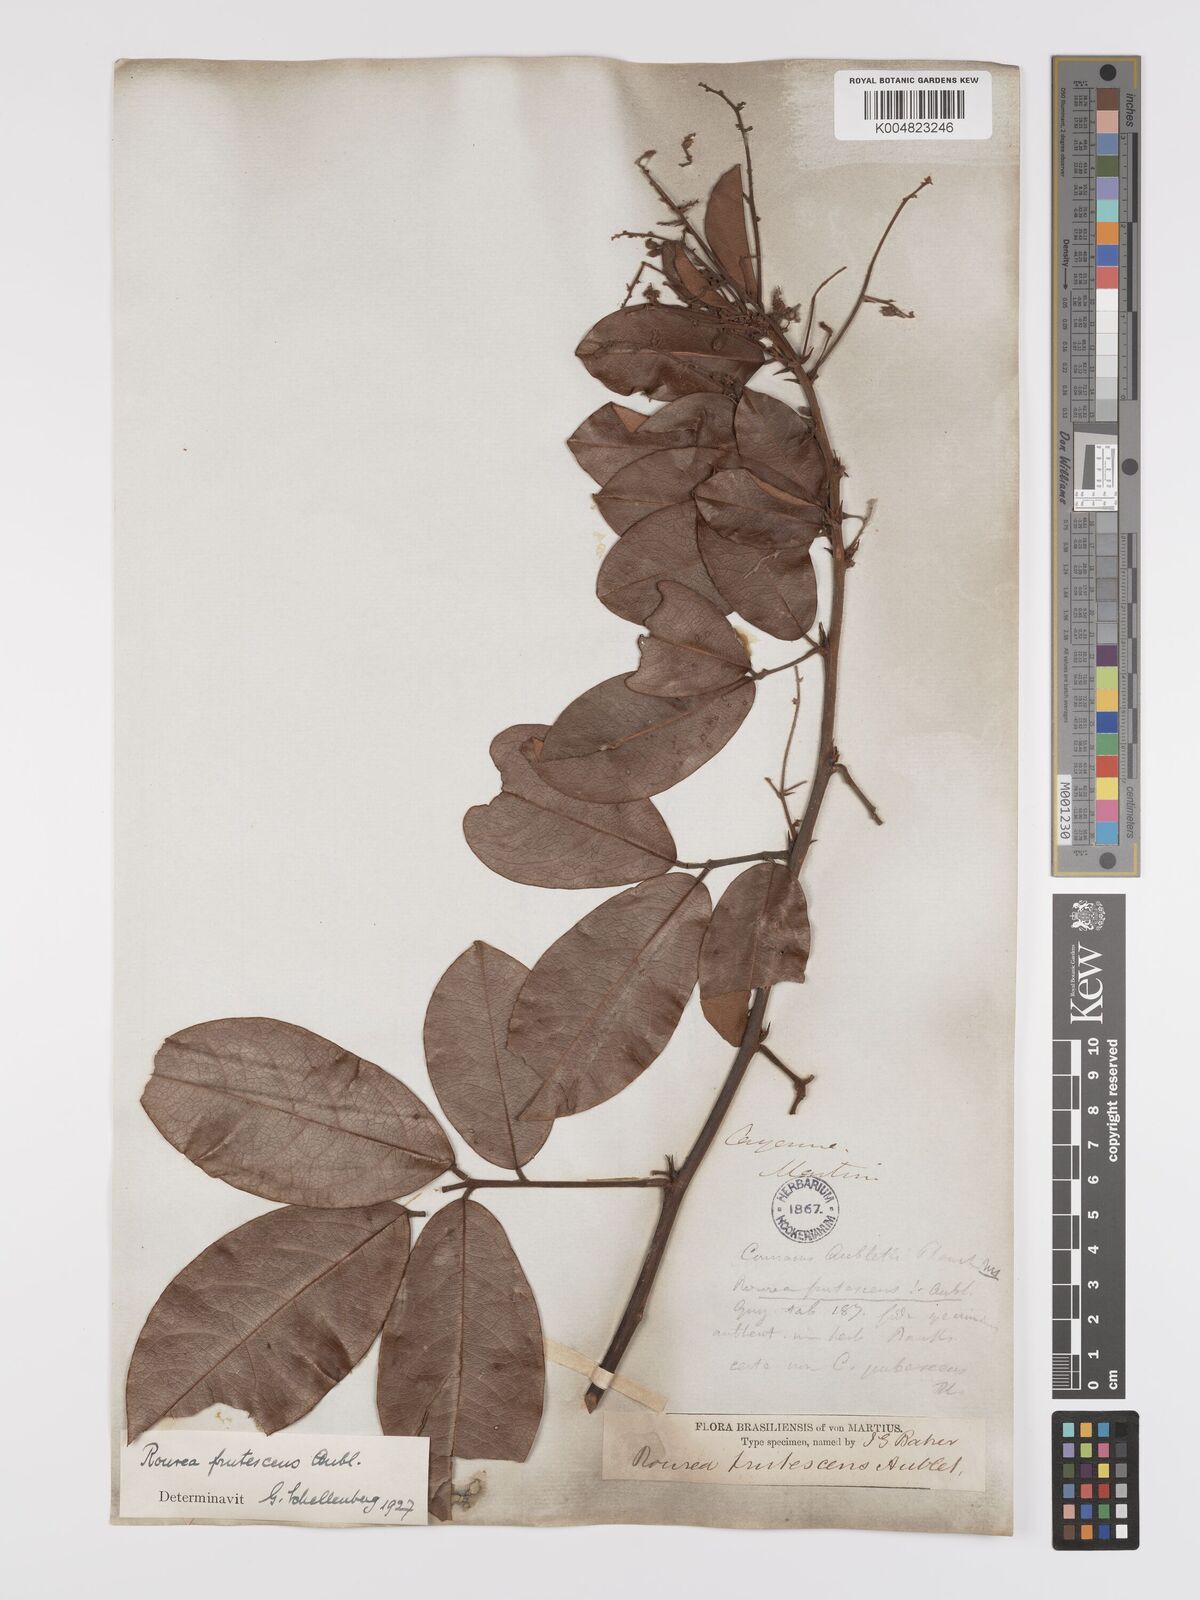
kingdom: Plantae
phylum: Tracheophyta
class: Magnoliopsida
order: Oxalidales
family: Connaraceae
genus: Rourea
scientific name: Rourea frutescens
